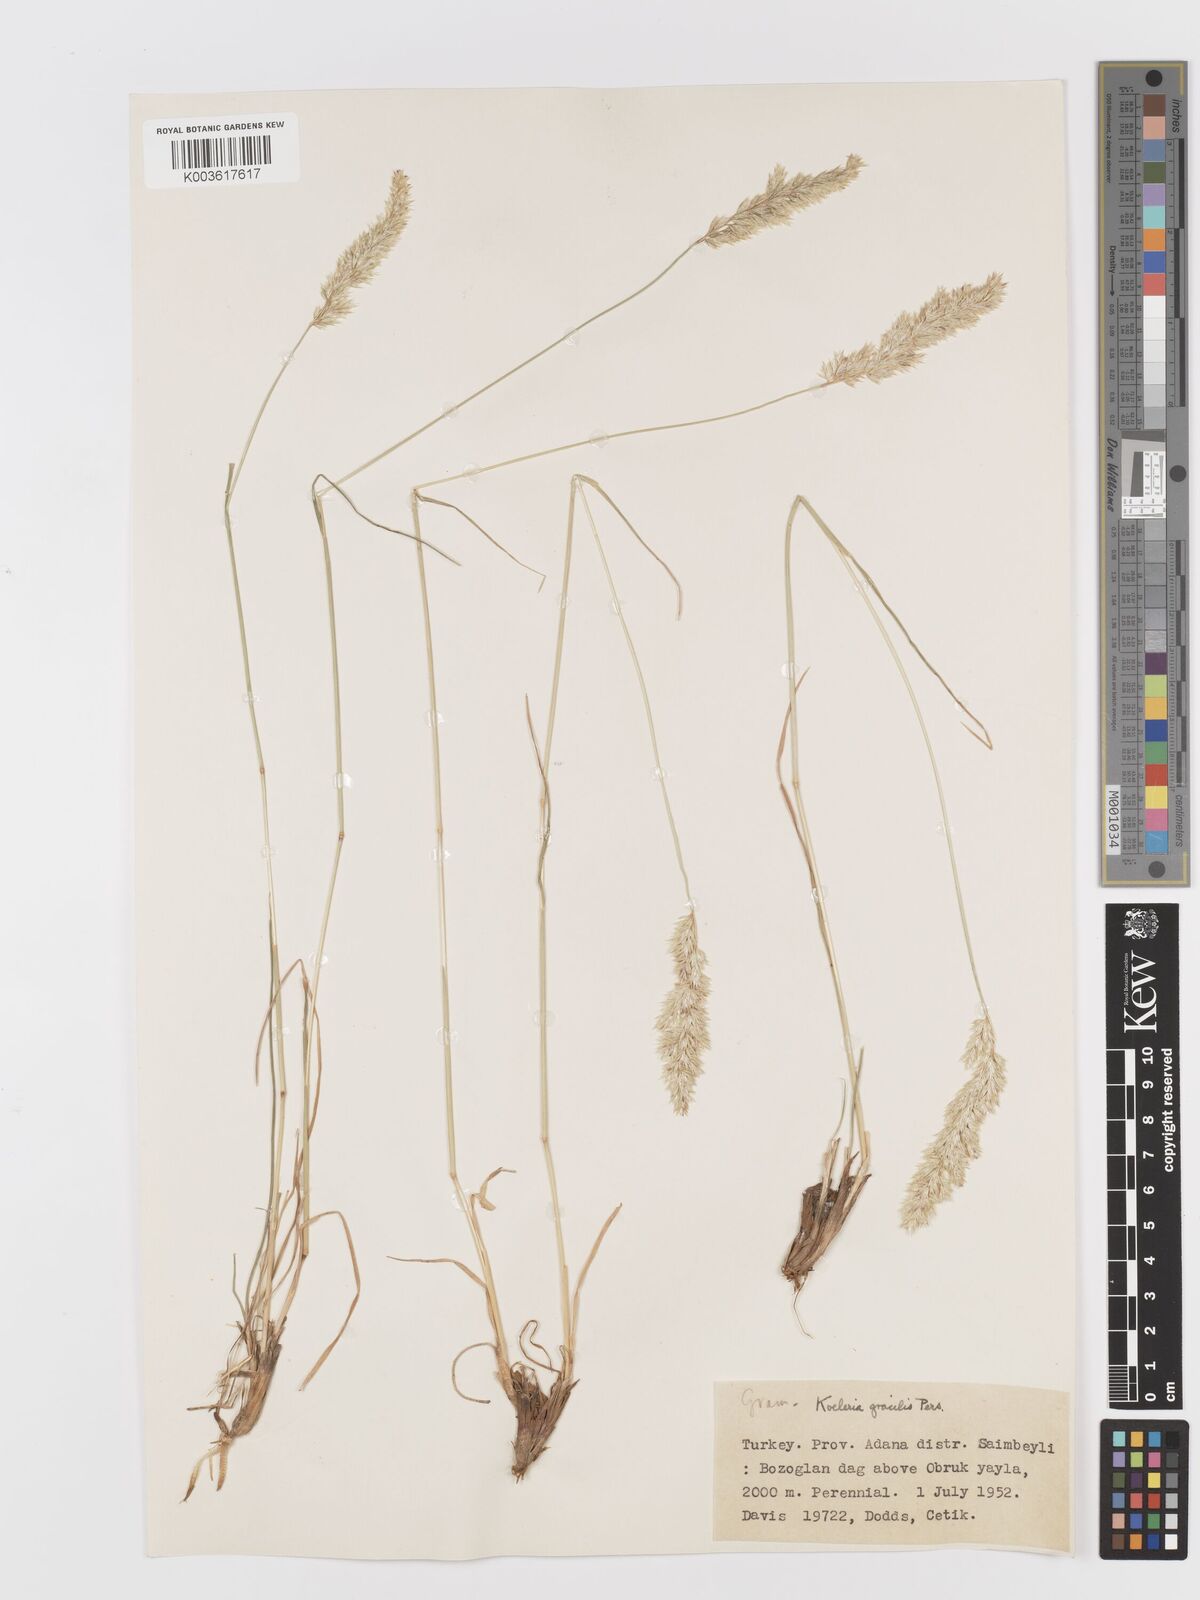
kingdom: Plantae
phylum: Tracheophyta
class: Liliopsida
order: Poales
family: Poaceae
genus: Koeleria
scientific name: Koeleria macrantha
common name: Crested hair-grass
